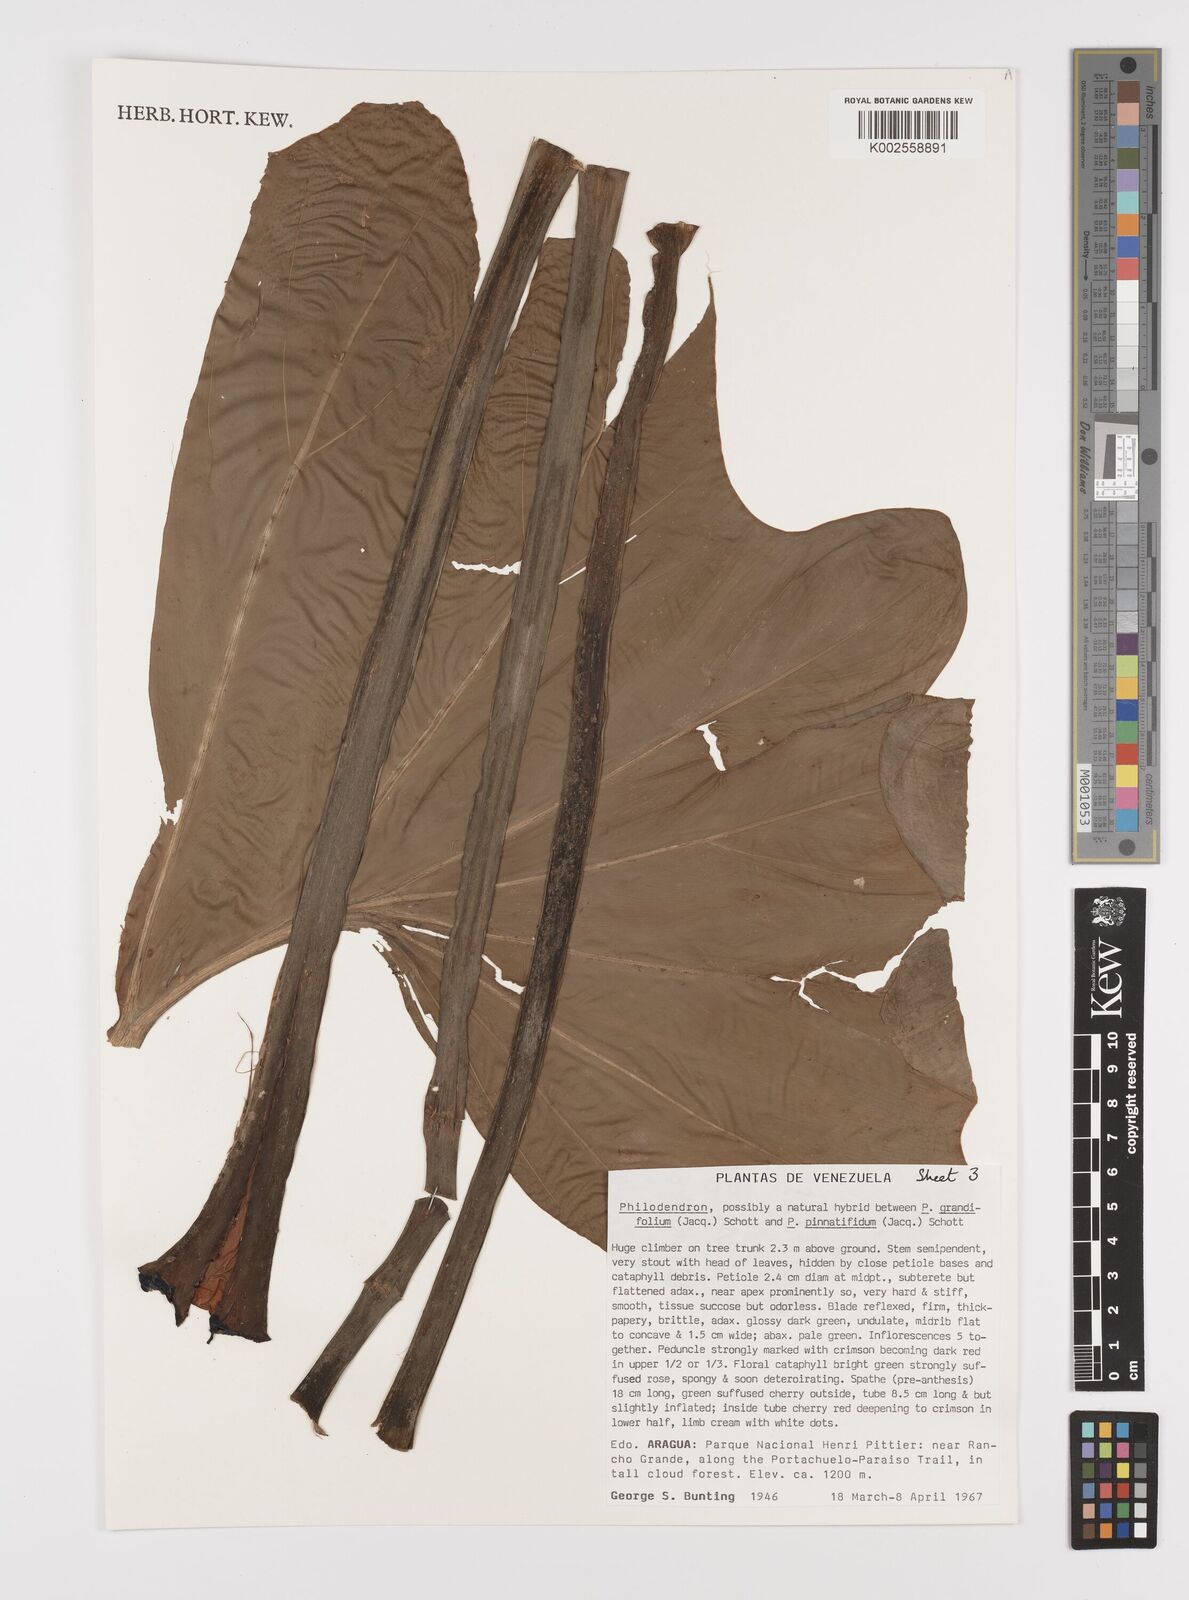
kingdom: Plantae
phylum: Tracheophyta
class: Liliopsida
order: Alismatales
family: Araceae
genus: Philodendron
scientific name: Philodendron grandifolium
